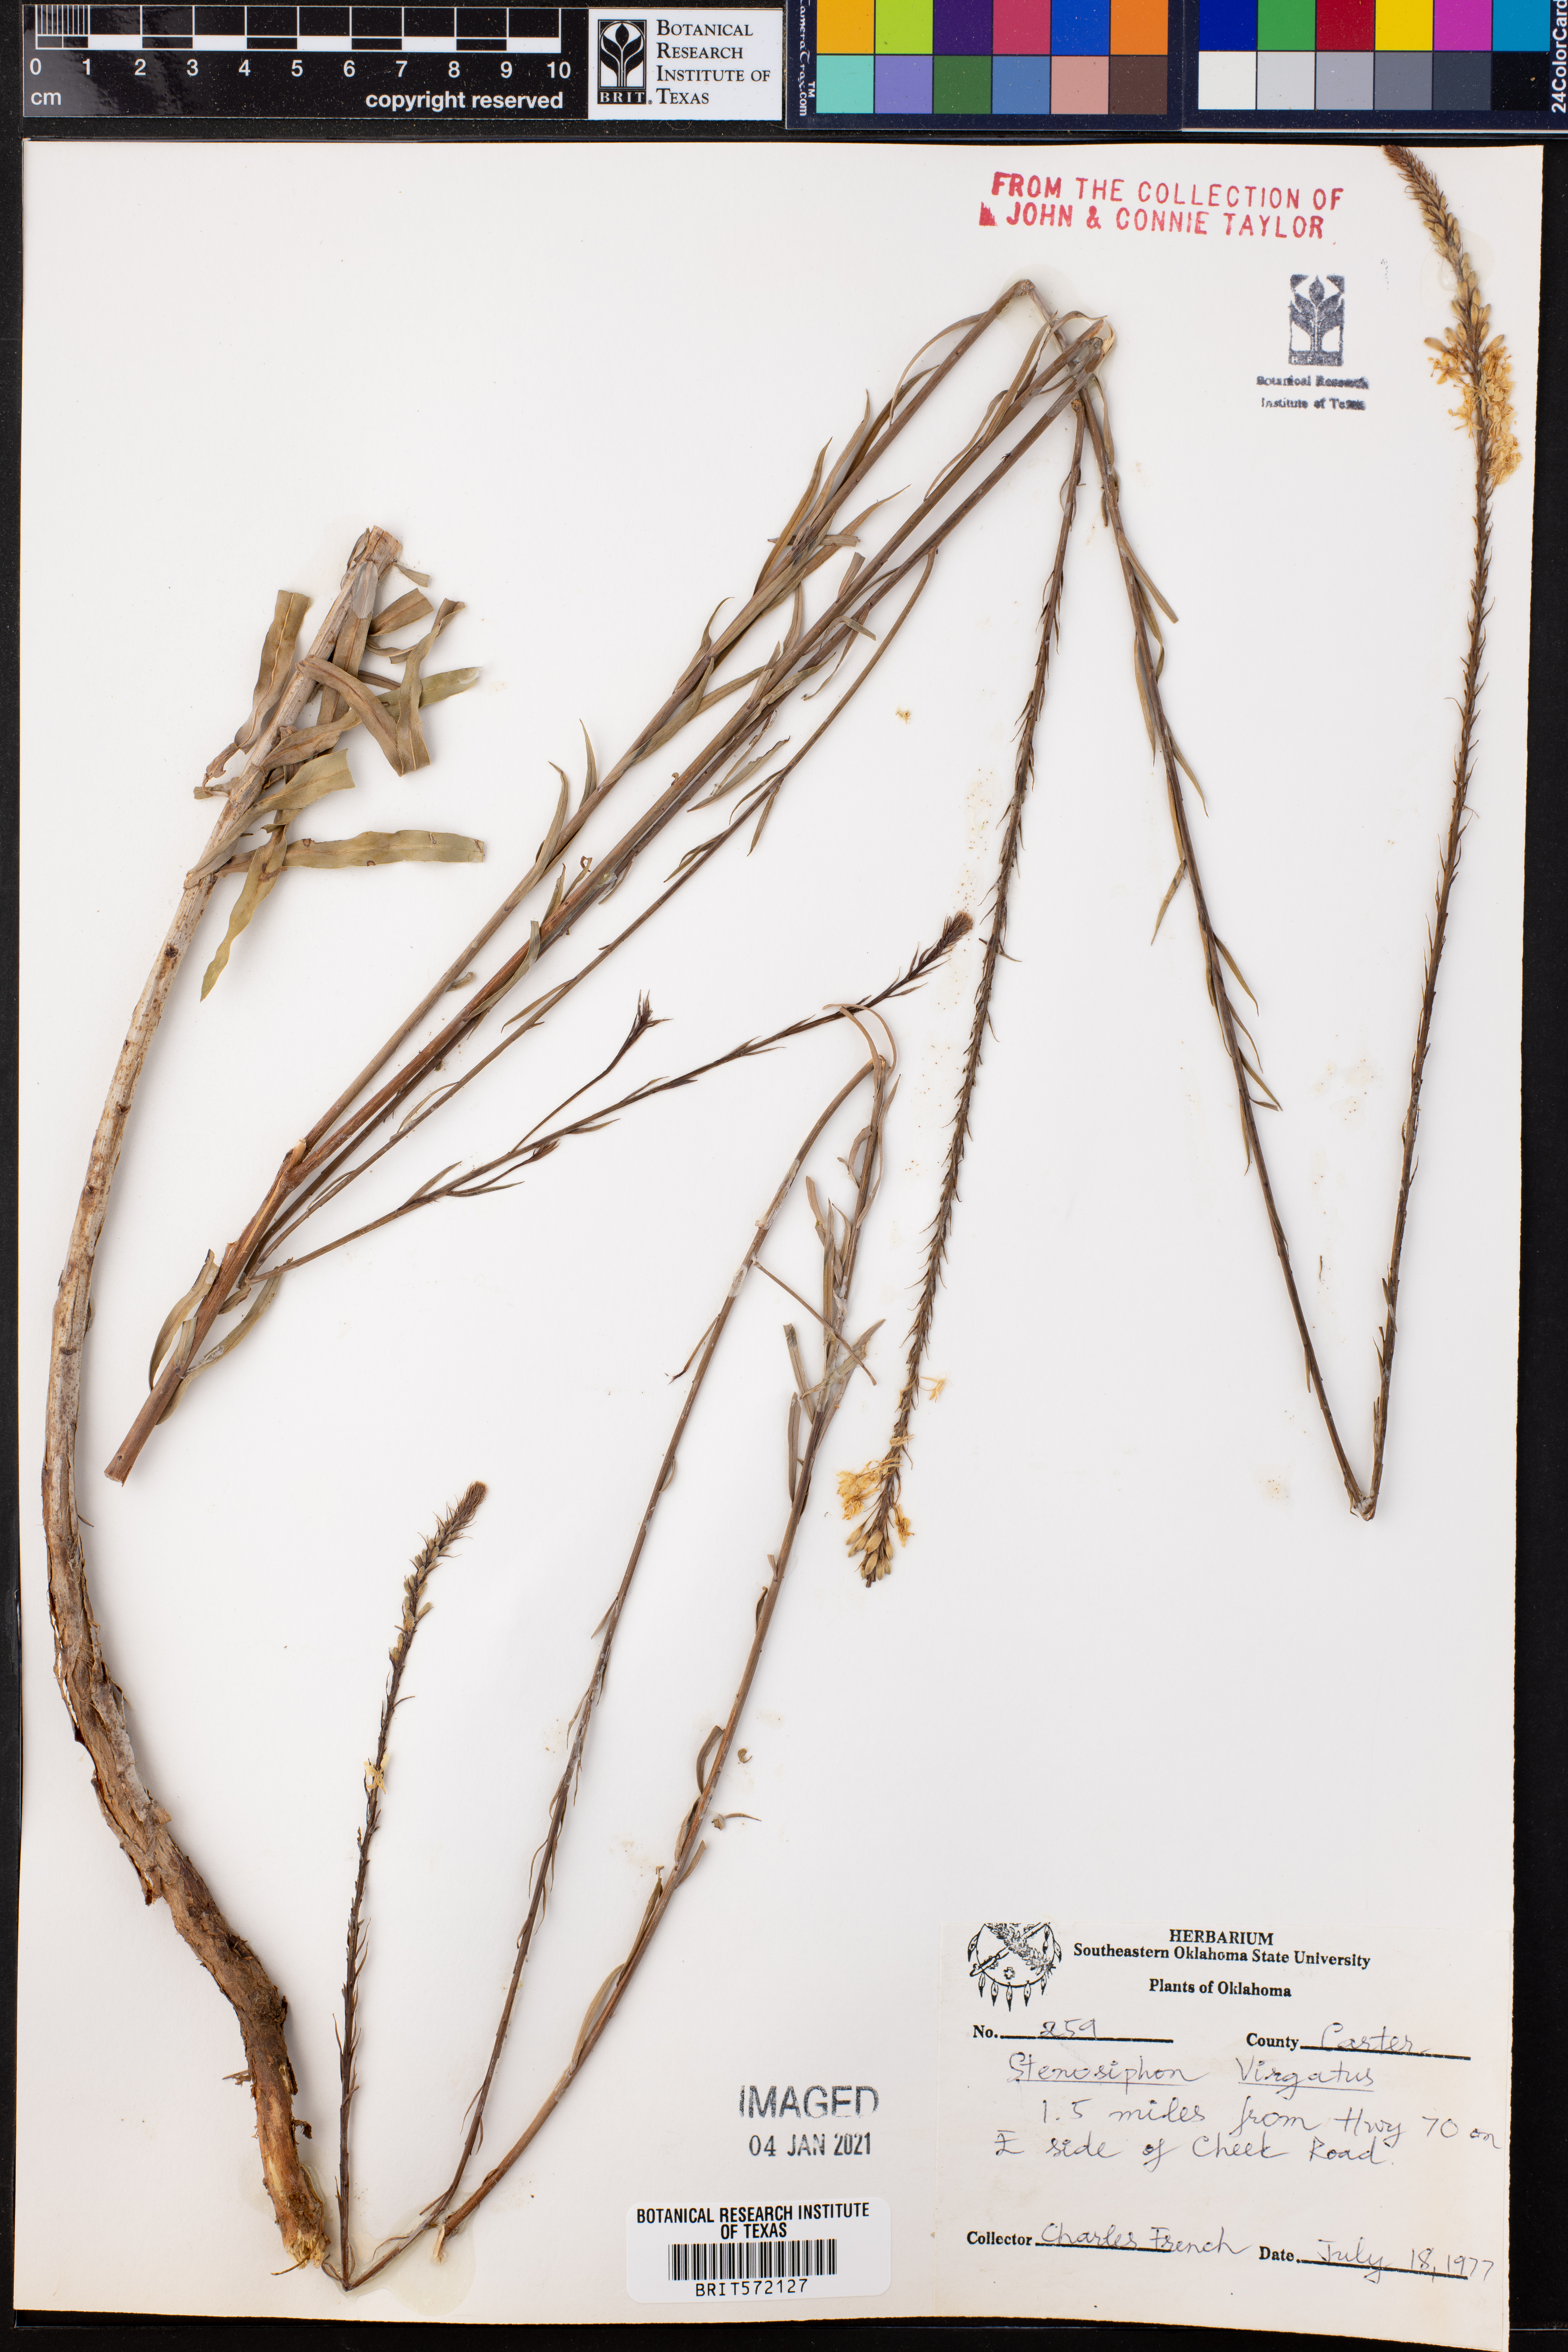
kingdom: Plantae
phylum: Tracheophyta
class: Magnoliopsida
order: Myrtales
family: Onagraceae
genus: Oenothera
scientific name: Oenothera glaucifolia
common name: False gaura
